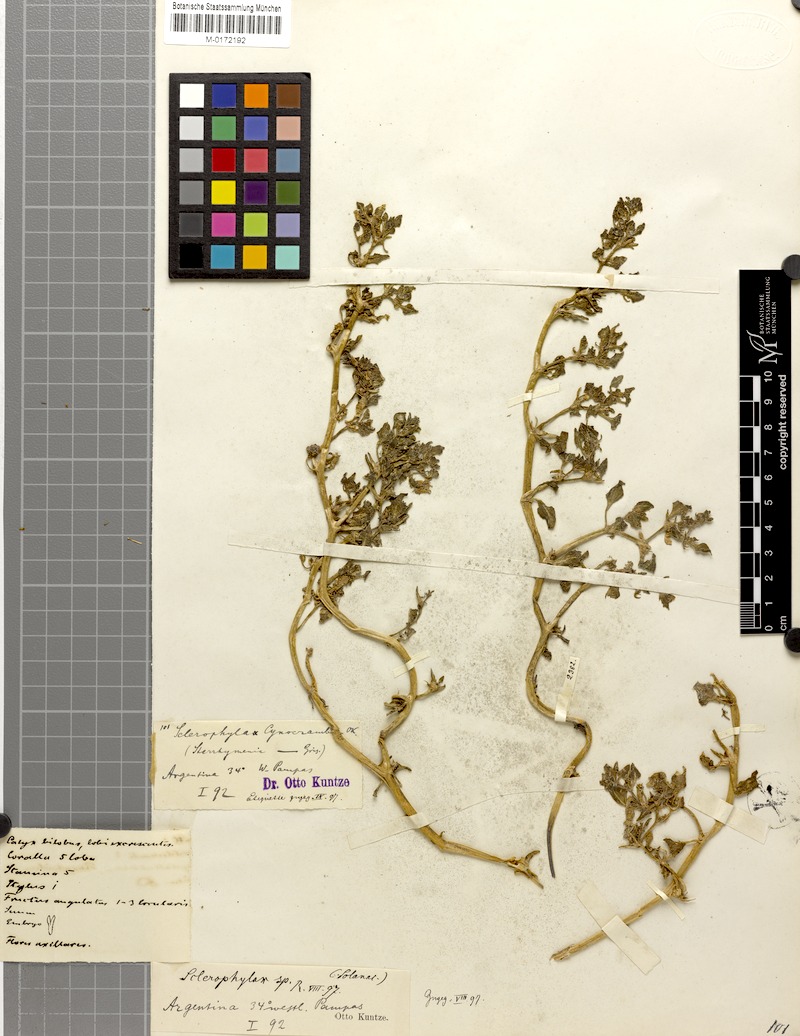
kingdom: Plantae
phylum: Tracheophyta
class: Magnoliopsida
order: Solanales
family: Solanaceae
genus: Sclerophylax
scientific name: Sclerophylax cynocrambe
